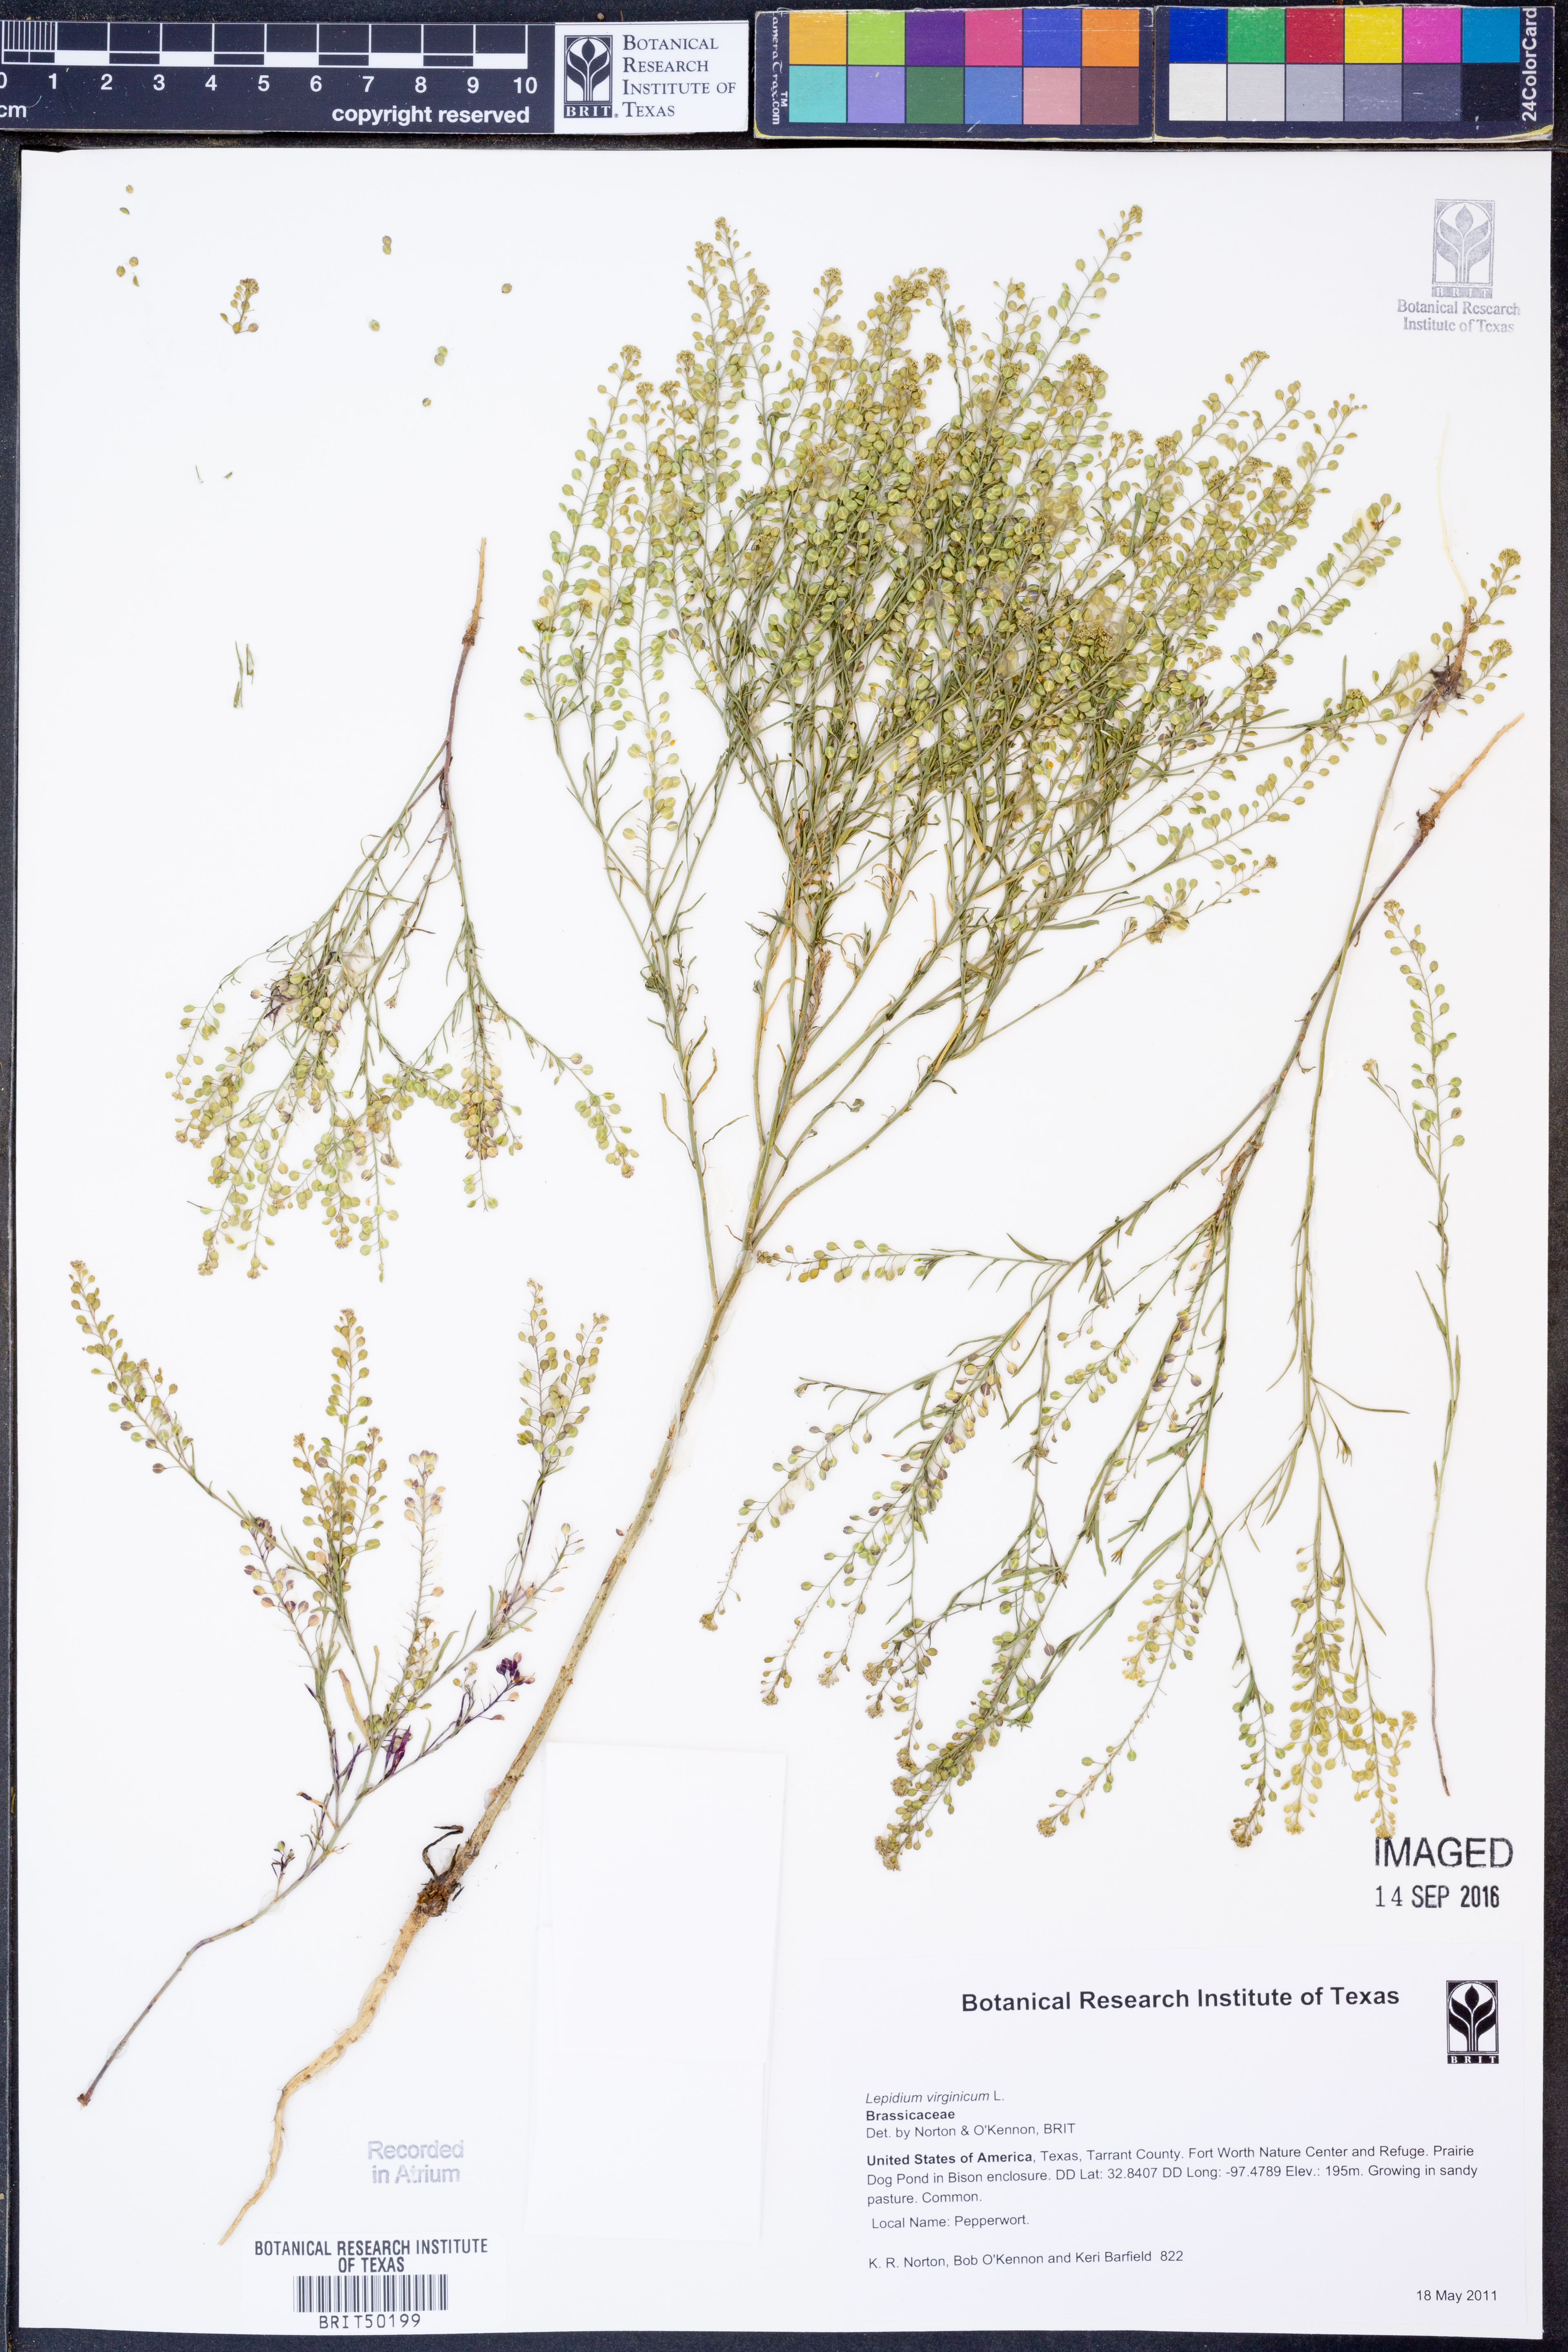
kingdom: Plantae
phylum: Tracheophyta
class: Magnoliopsida
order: Brassicales
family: Brassicaceae
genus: Lepidium
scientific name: Lepidium virginicum
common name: Least pepperwort
